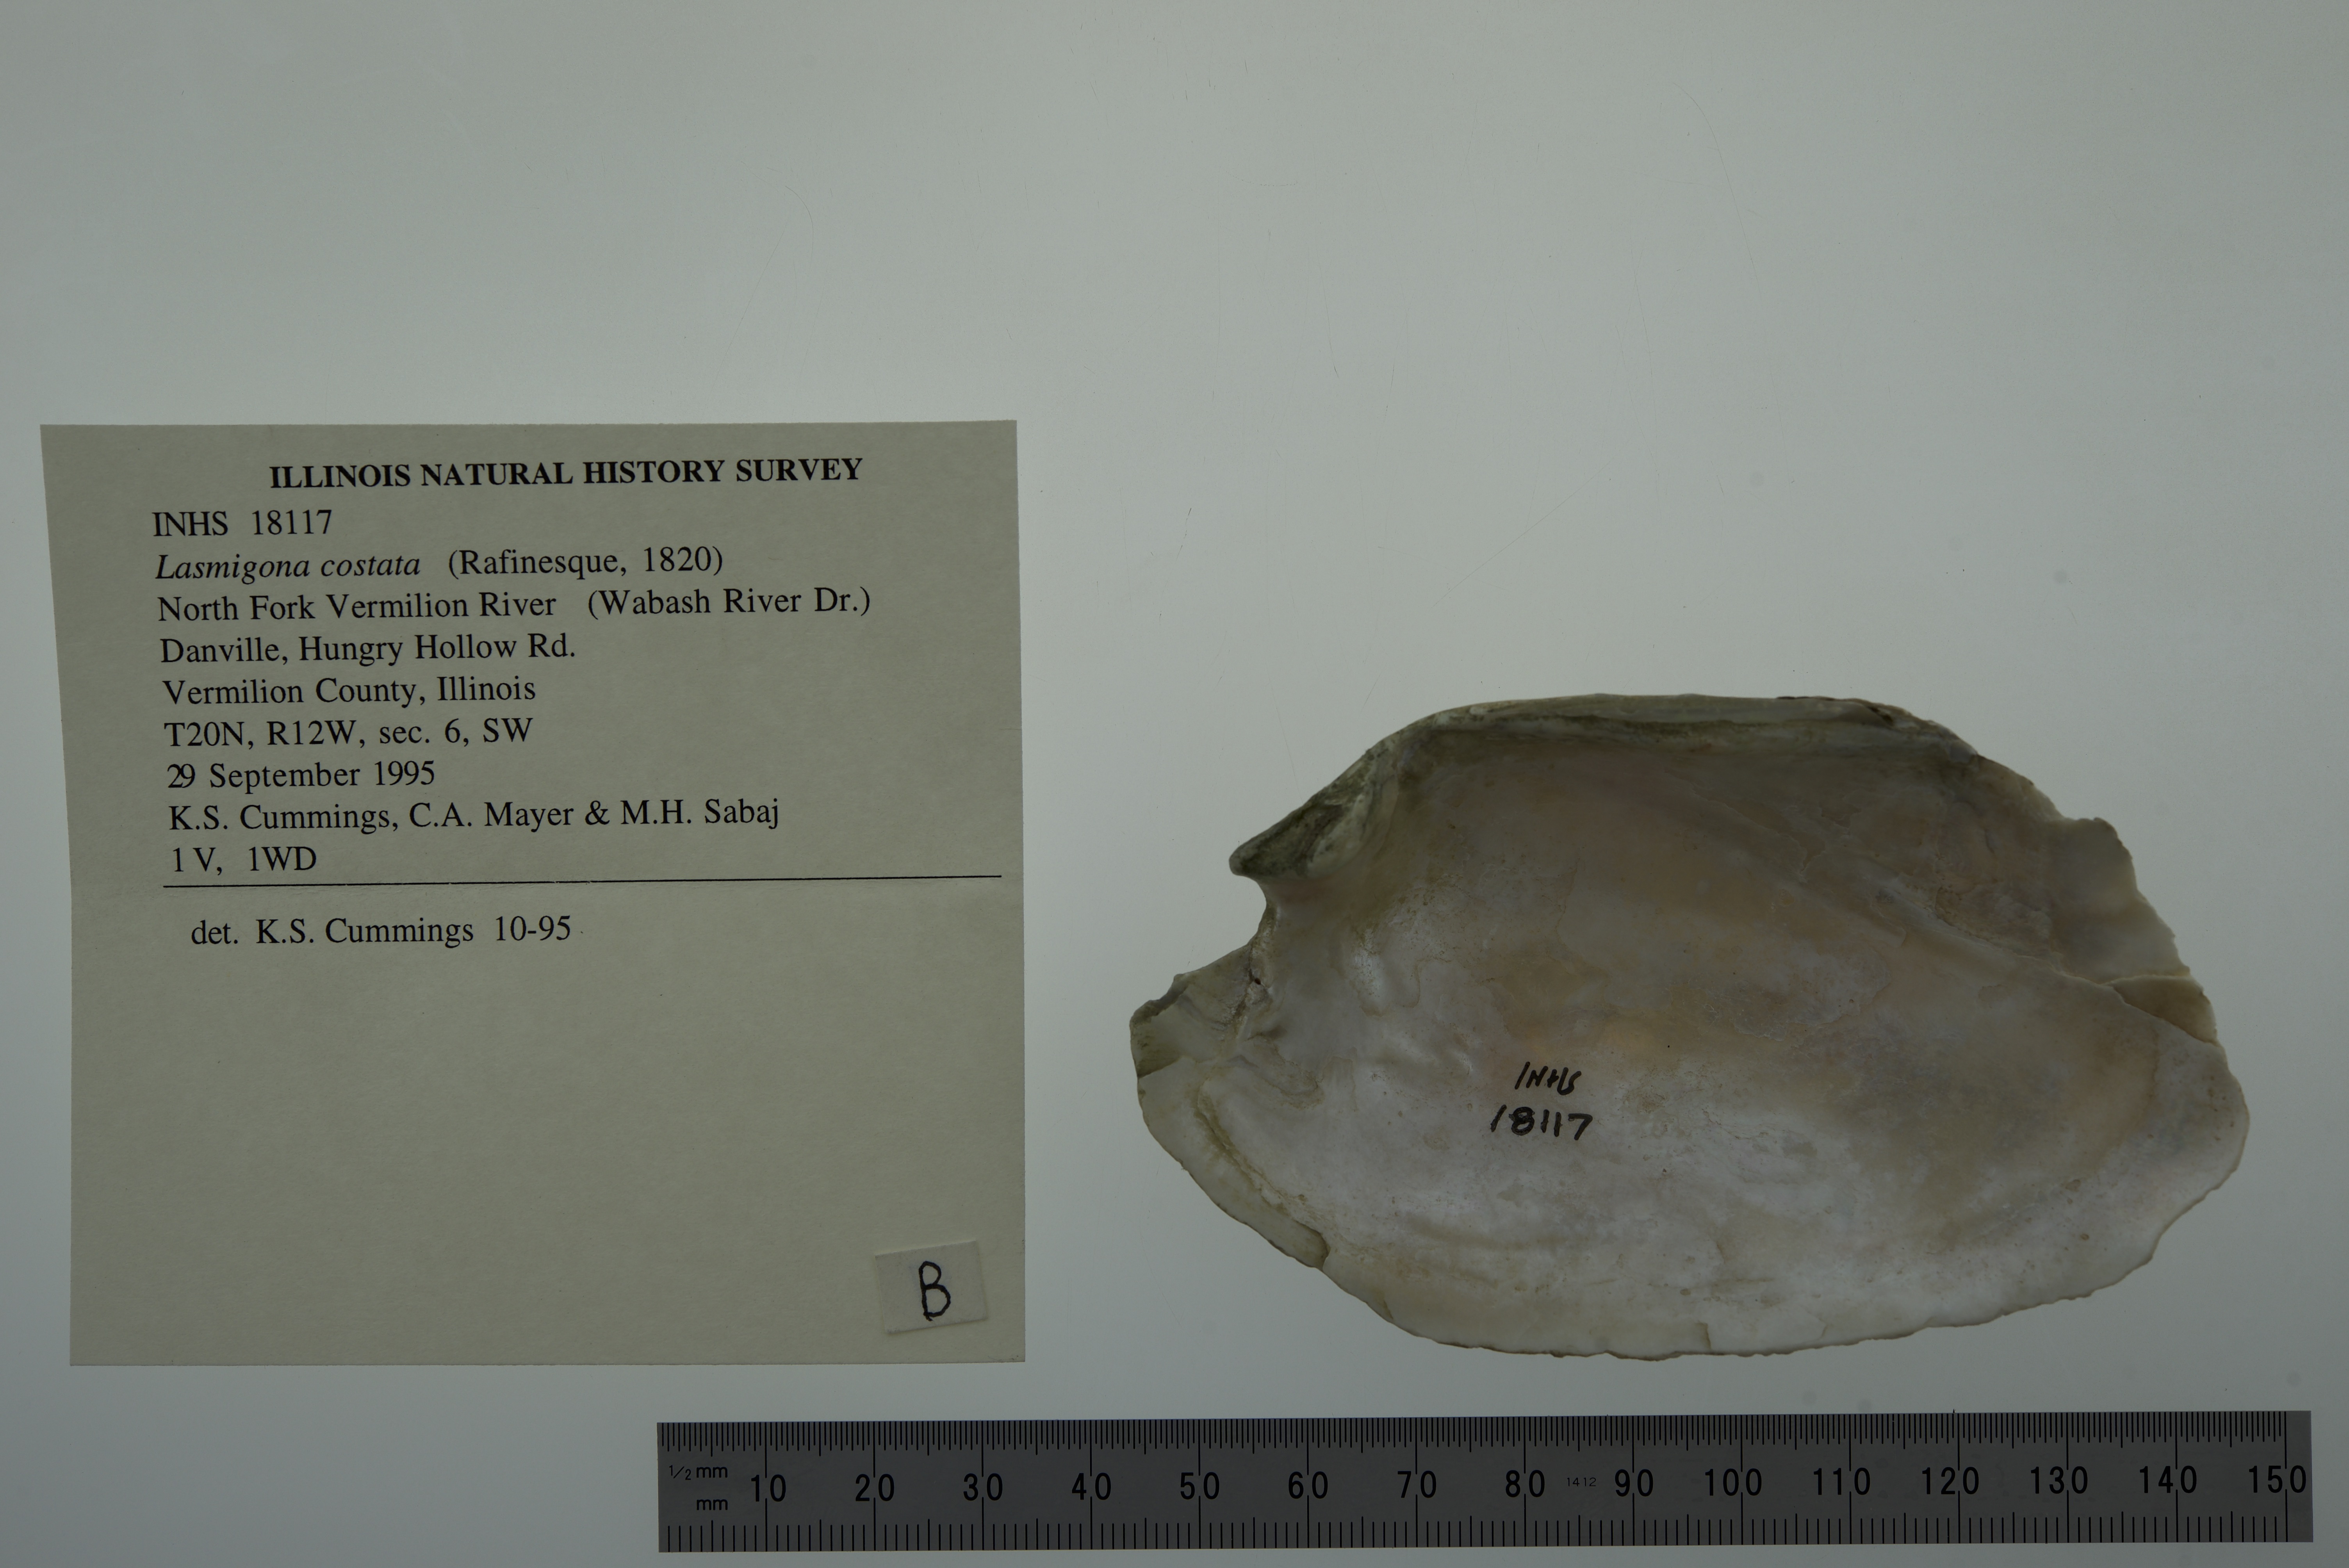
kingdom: Animalia
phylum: Mollusca
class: Bivalvia
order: Unionida
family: Unionidae
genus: Lasmigona
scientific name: Lasmigona costata
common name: Flutedshell
